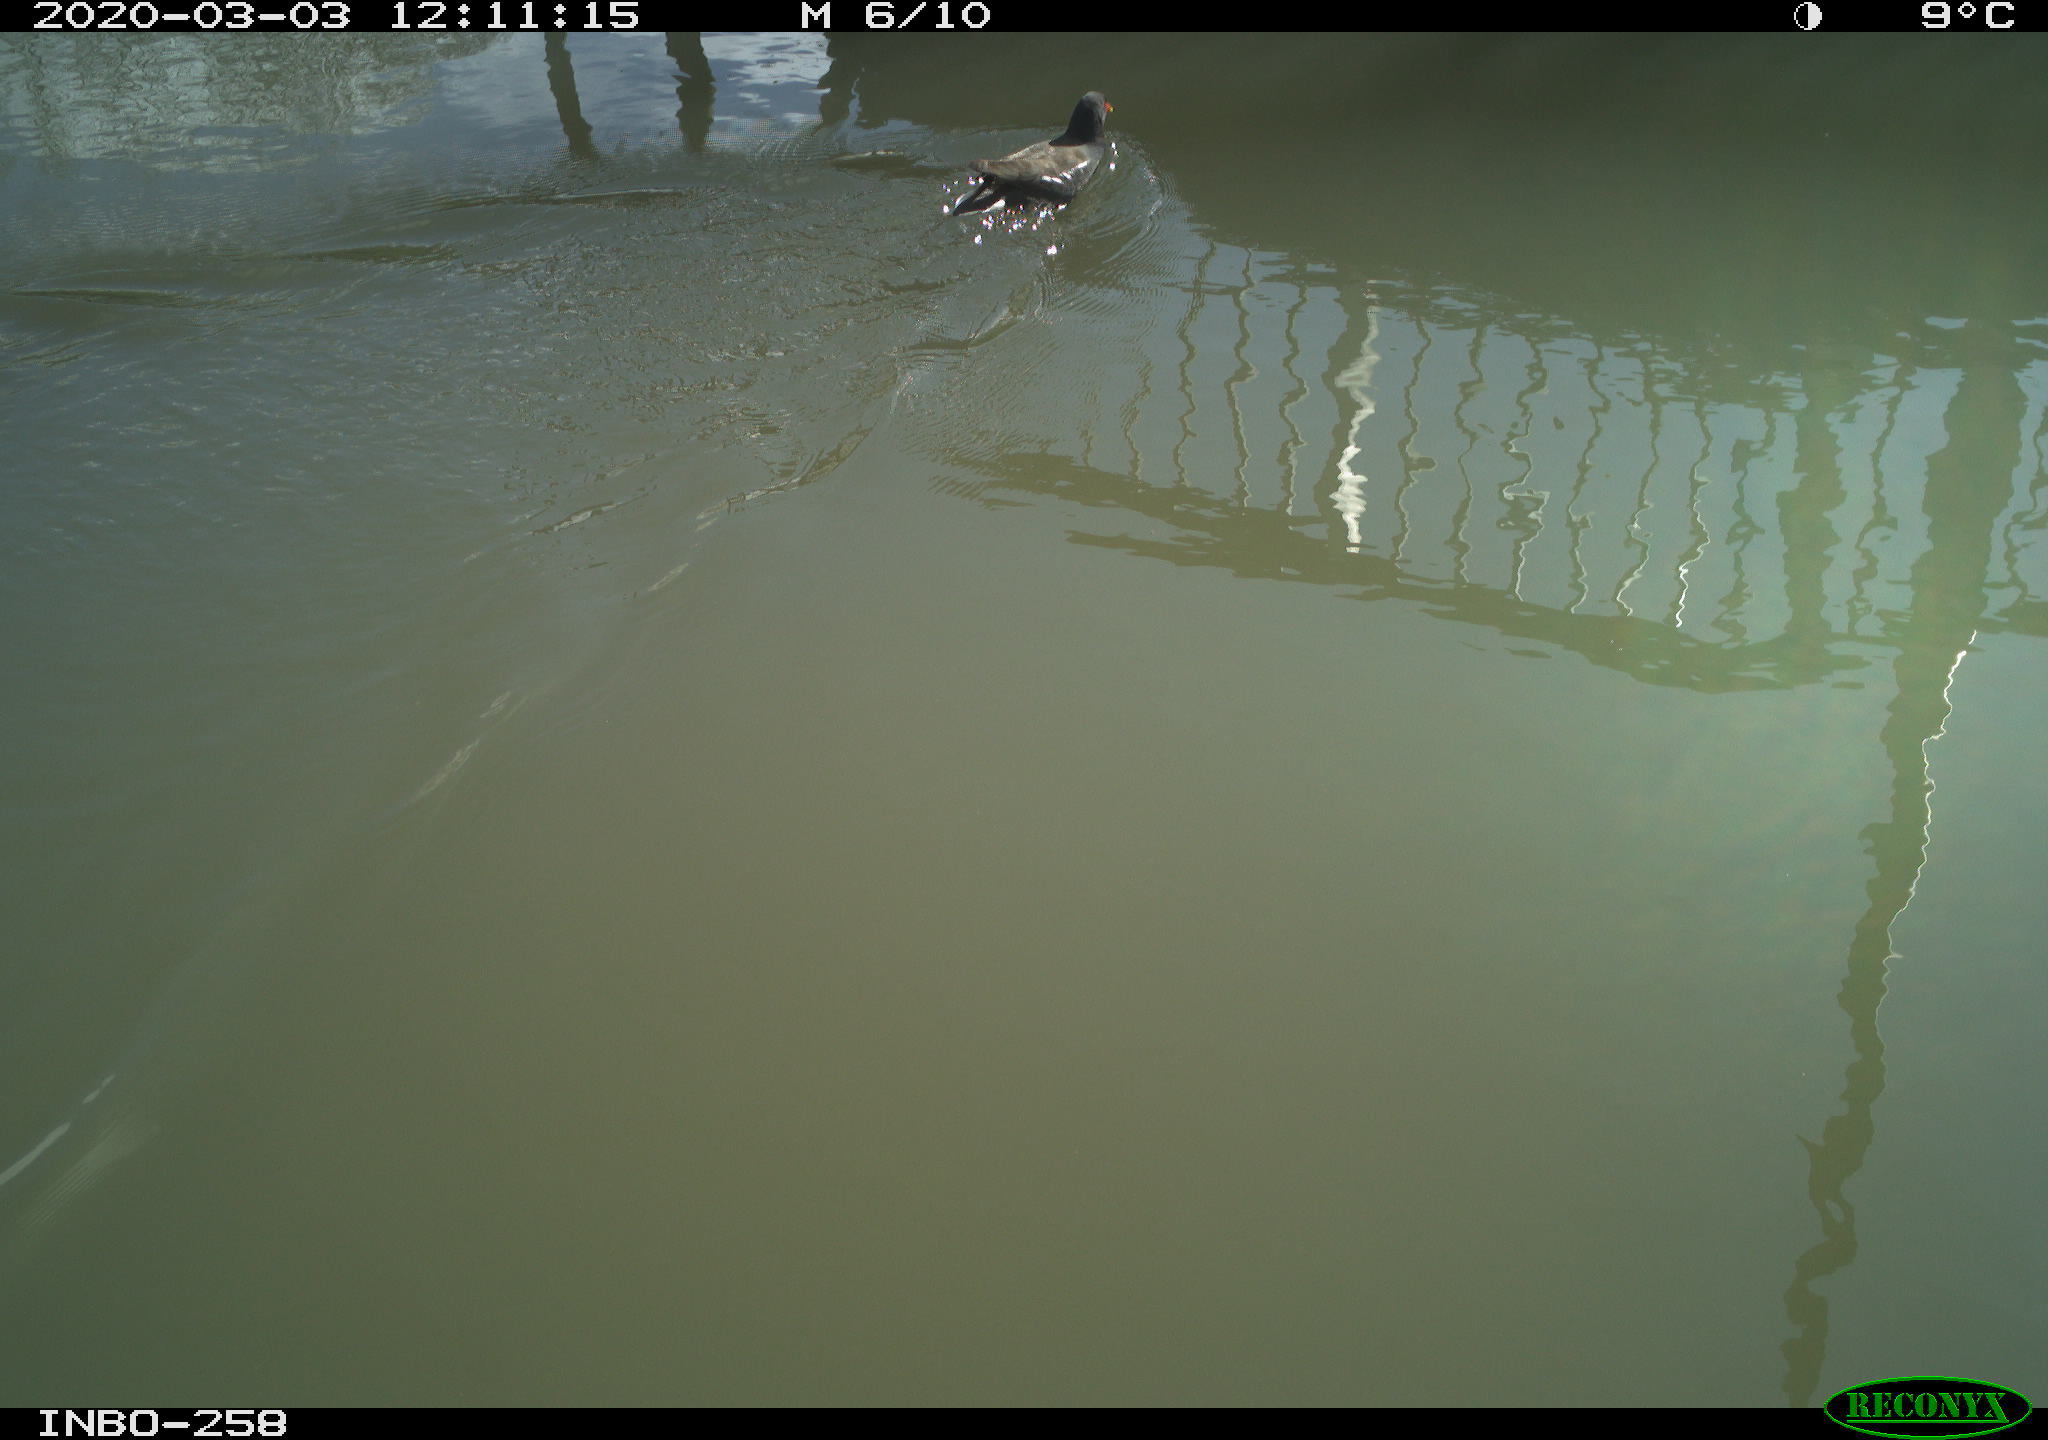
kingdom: Animalia
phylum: Chordata
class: Aves
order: Gruiformes
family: Rallidae
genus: Gallinula
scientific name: Gallinula chloropus
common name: Common moorhen
